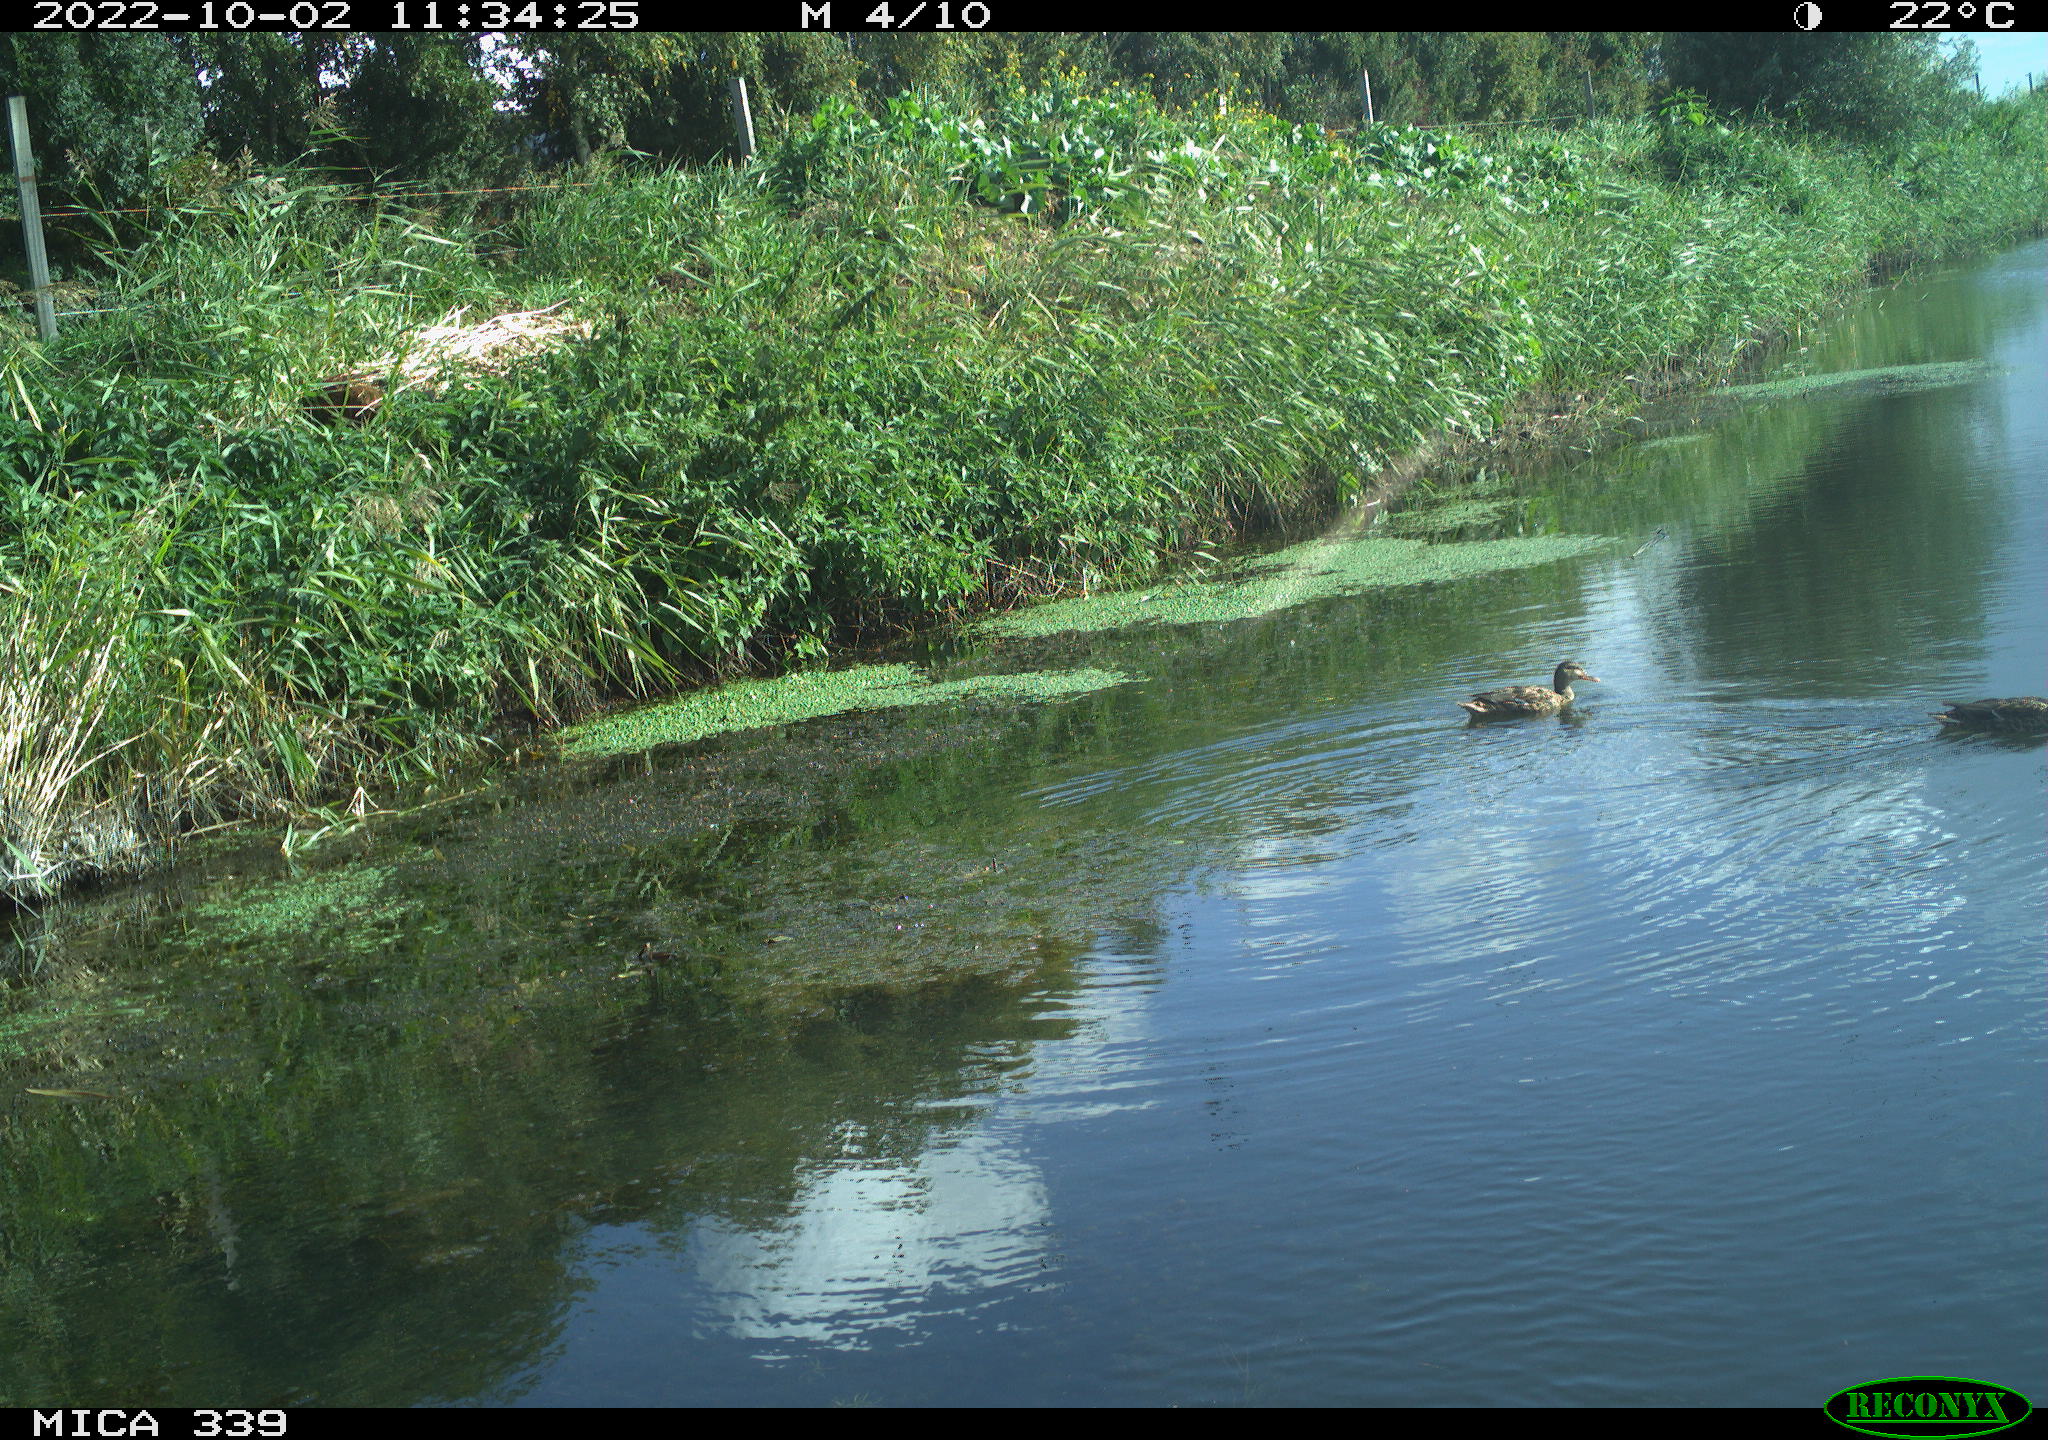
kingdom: Animalia
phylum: Chordata
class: Aves
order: Anseriformes
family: Anatidae
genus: Anas
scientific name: Anas platyrhynchos
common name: Mallard
